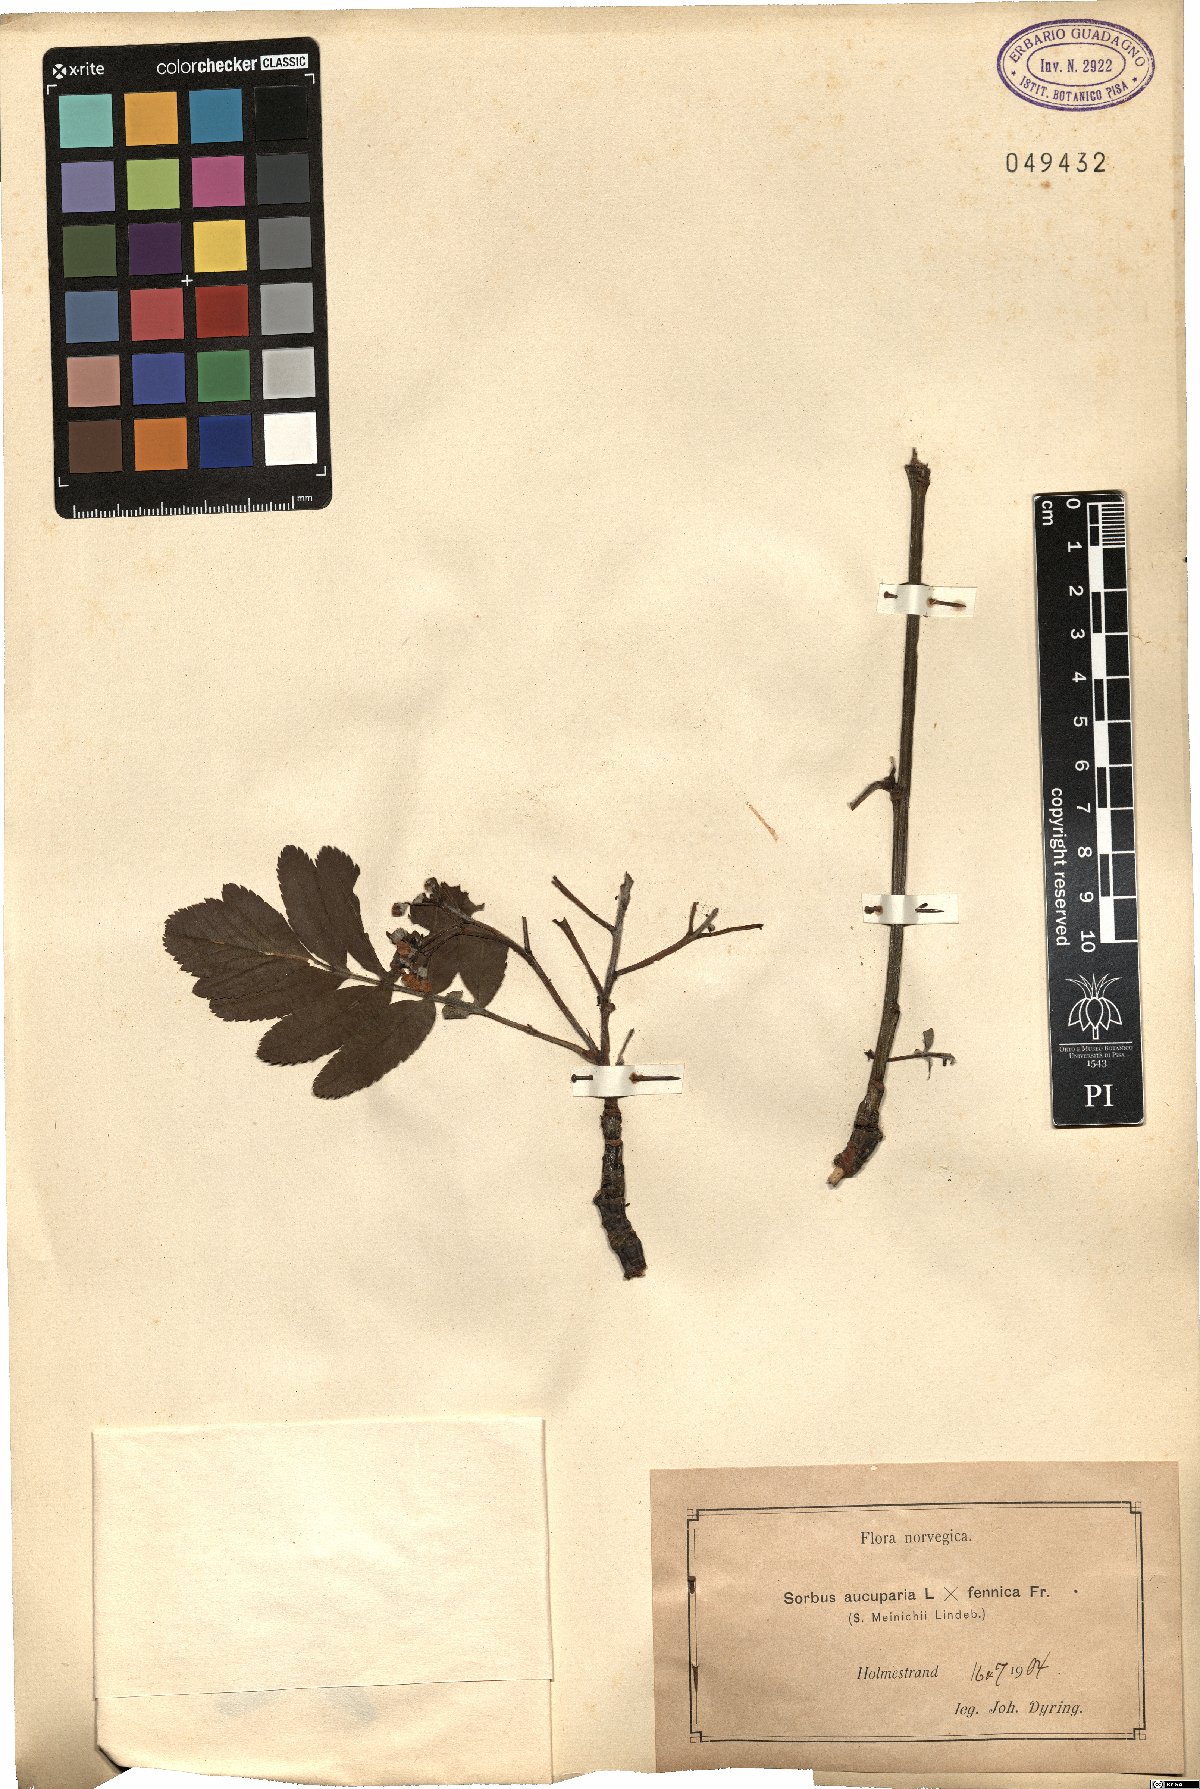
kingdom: Plantae
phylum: Tracheophyta
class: Magnoliopsida
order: Rosales
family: Rosaceae
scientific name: Rosaceae
